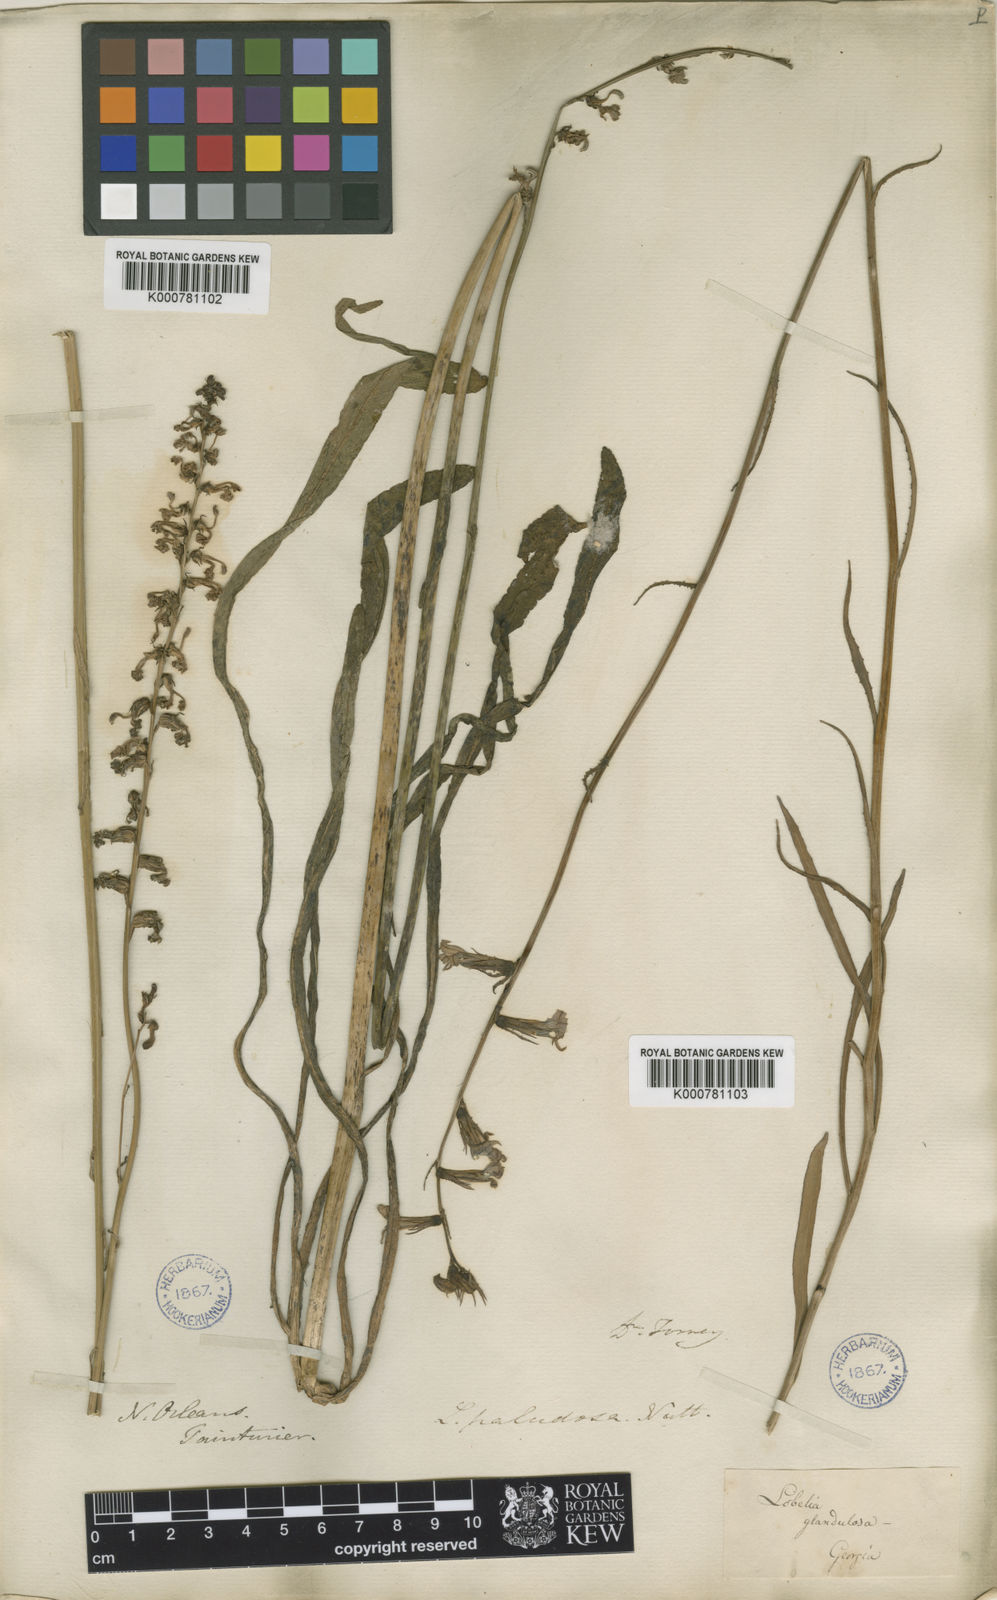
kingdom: Plantae
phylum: Tracheophyta
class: Magnoliopsida
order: Asterales
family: Campanulaceae
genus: Lobelia
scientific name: Lobelia paludosa
